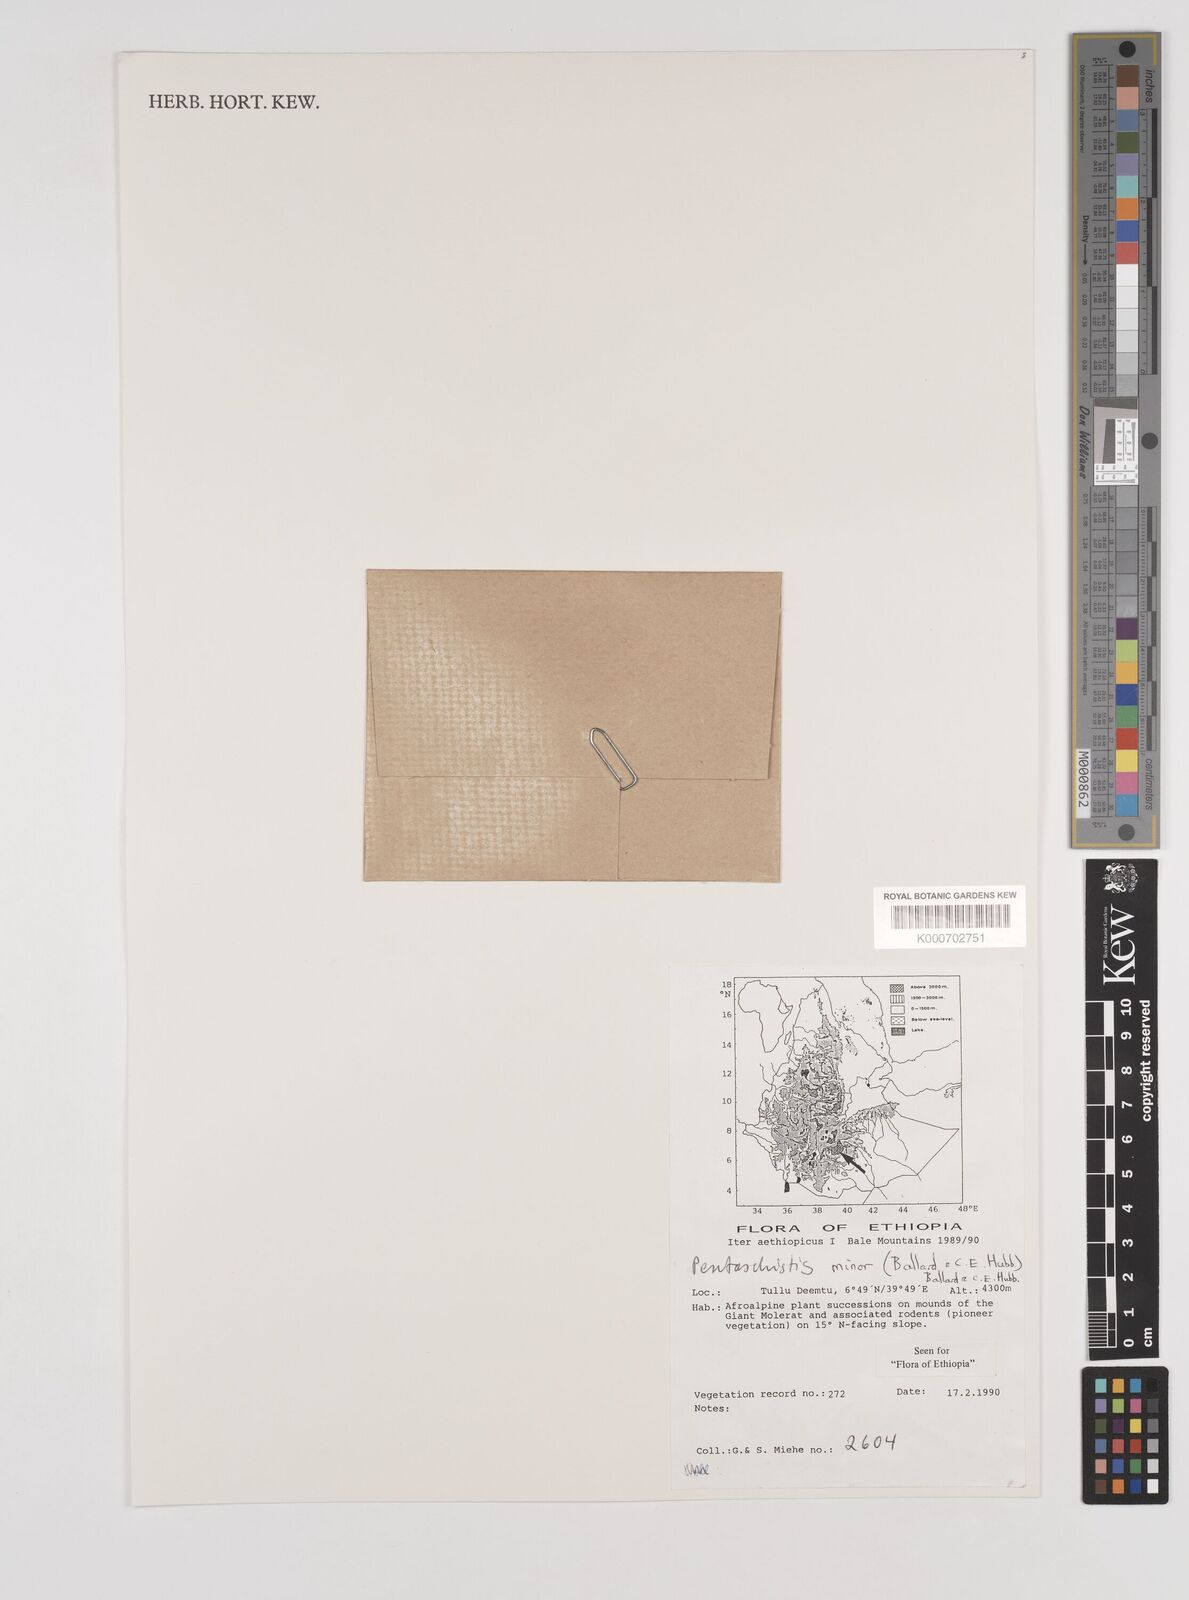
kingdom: Plantae
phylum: Tracheophyta
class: Liliopsida
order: Poales
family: Poaceae
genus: Pentameris
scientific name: Pentameris minor
